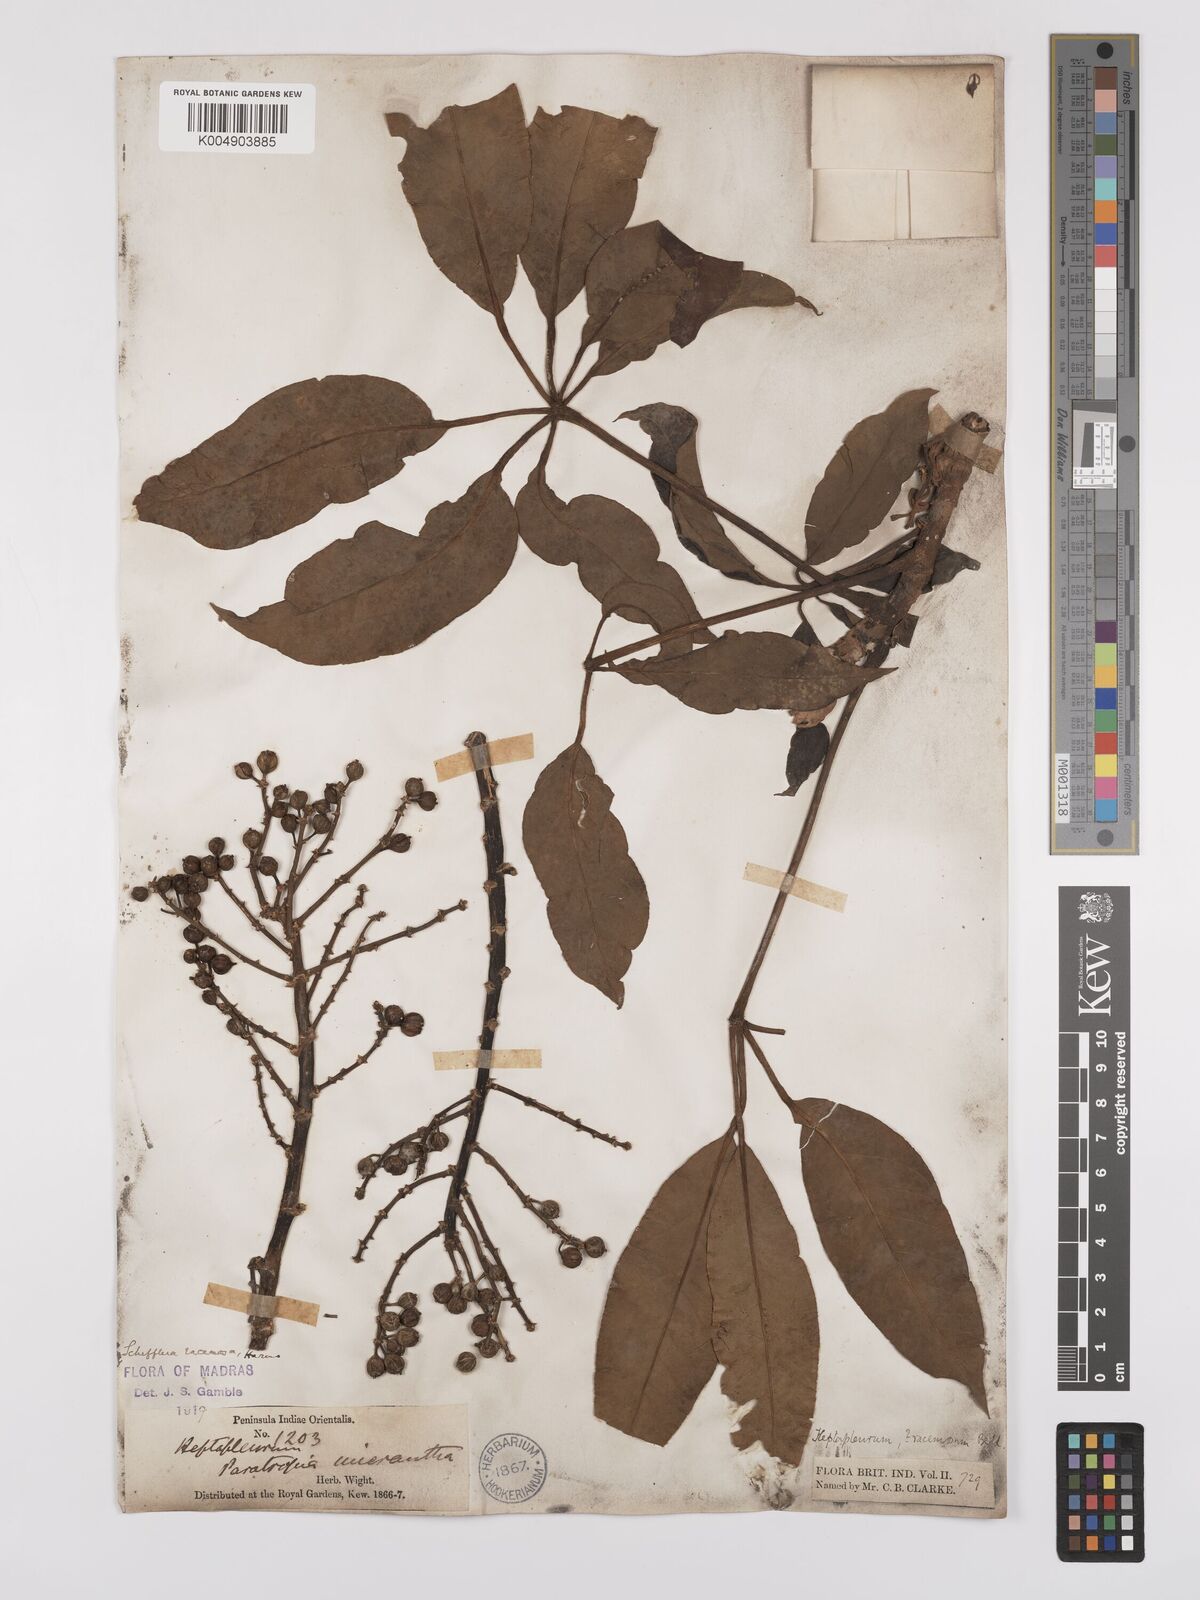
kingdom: Plantae
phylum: Tracheophyta
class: Magnoliopsida
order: Apiales
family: Araliaceae
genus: Heptapleurum
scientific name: Heptapleurum
